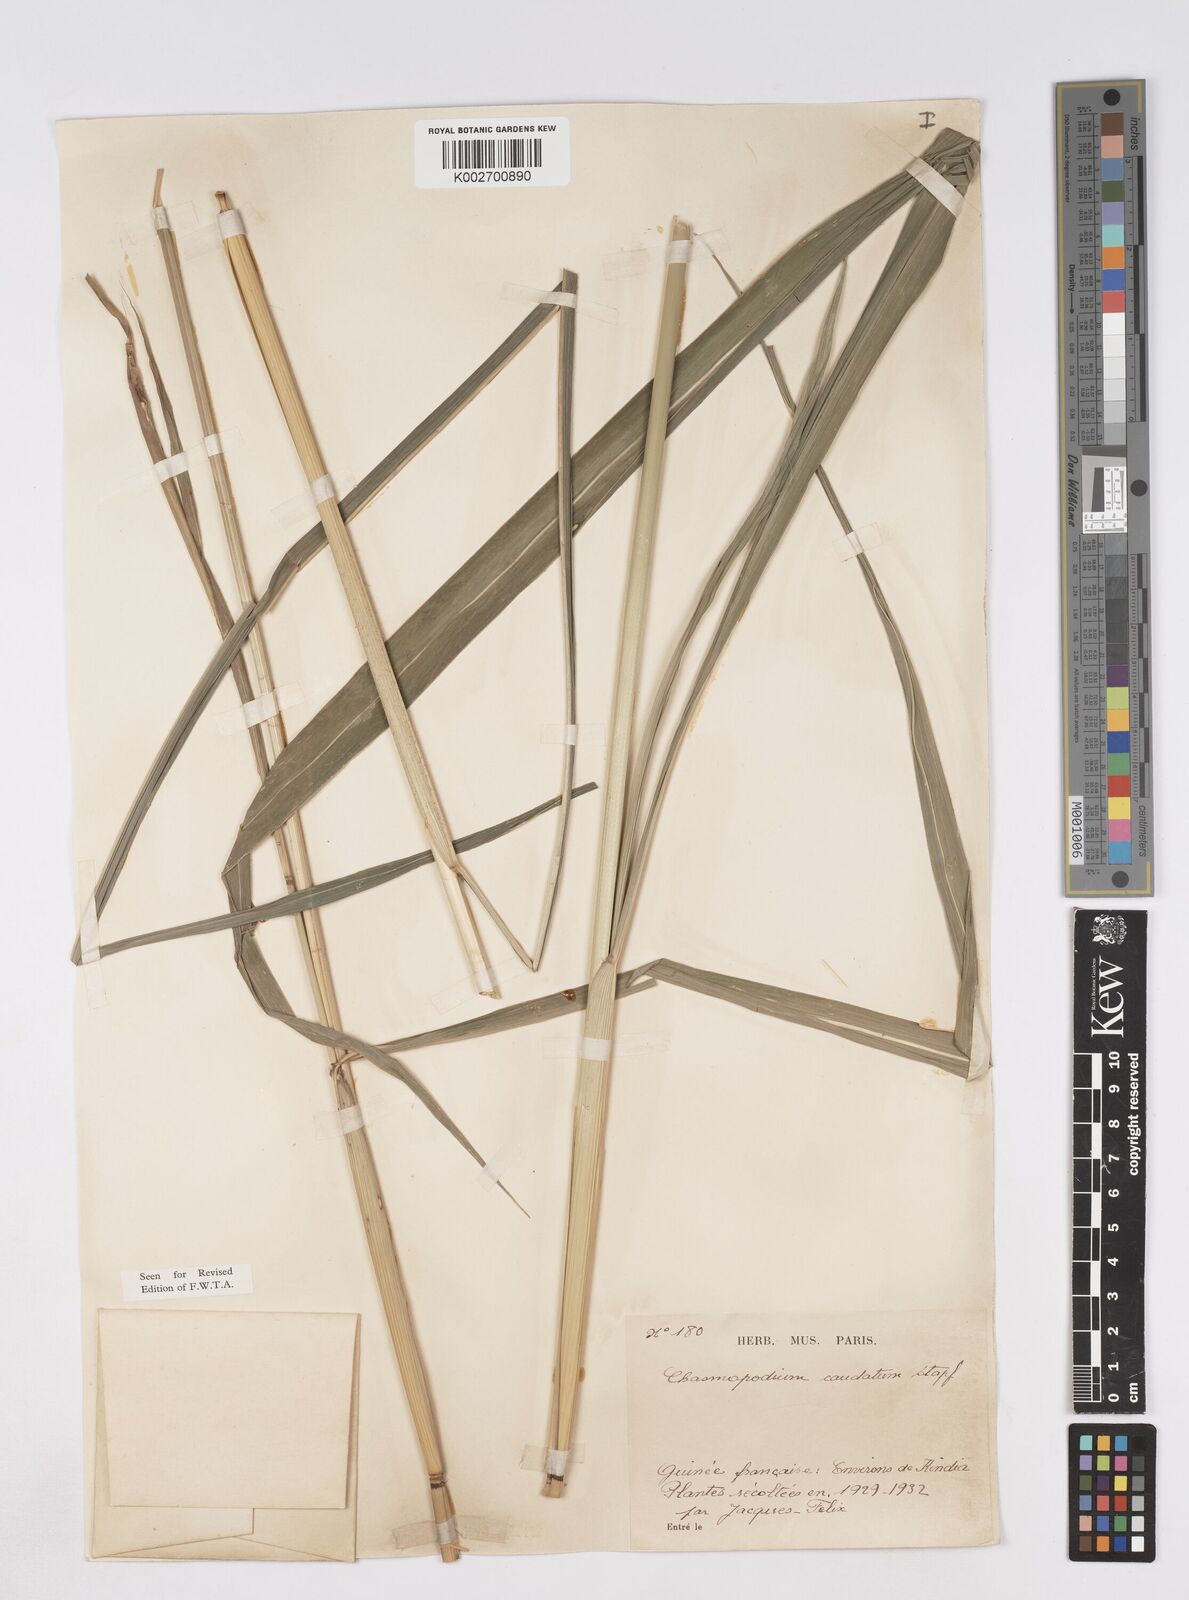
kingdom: Plantae
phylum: Tracheophyta
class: Liliopsida
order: Poales
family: Poaceae
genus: Chasmopodium
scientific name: Chasmopodium caudatum
